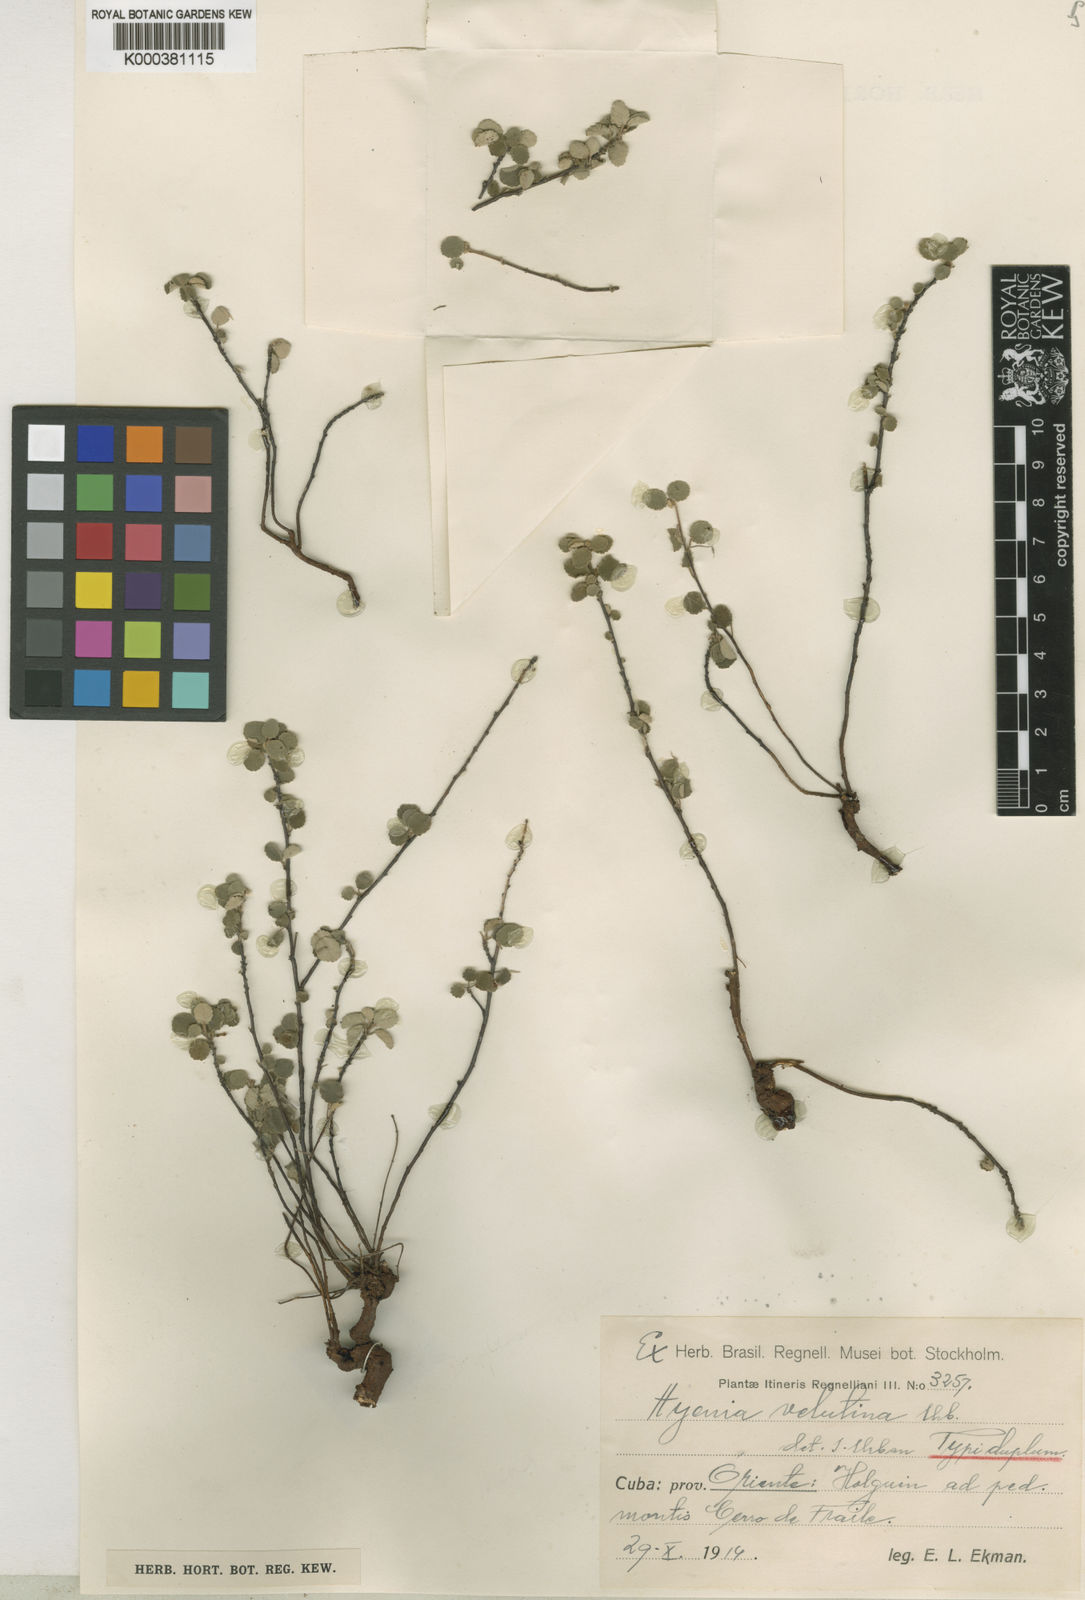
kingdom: Plantae
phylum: Tracheophyta
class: Magnoliopsida
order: Malvales
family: Malvaceae
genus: Ayenia
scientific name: Ayenia velutina
